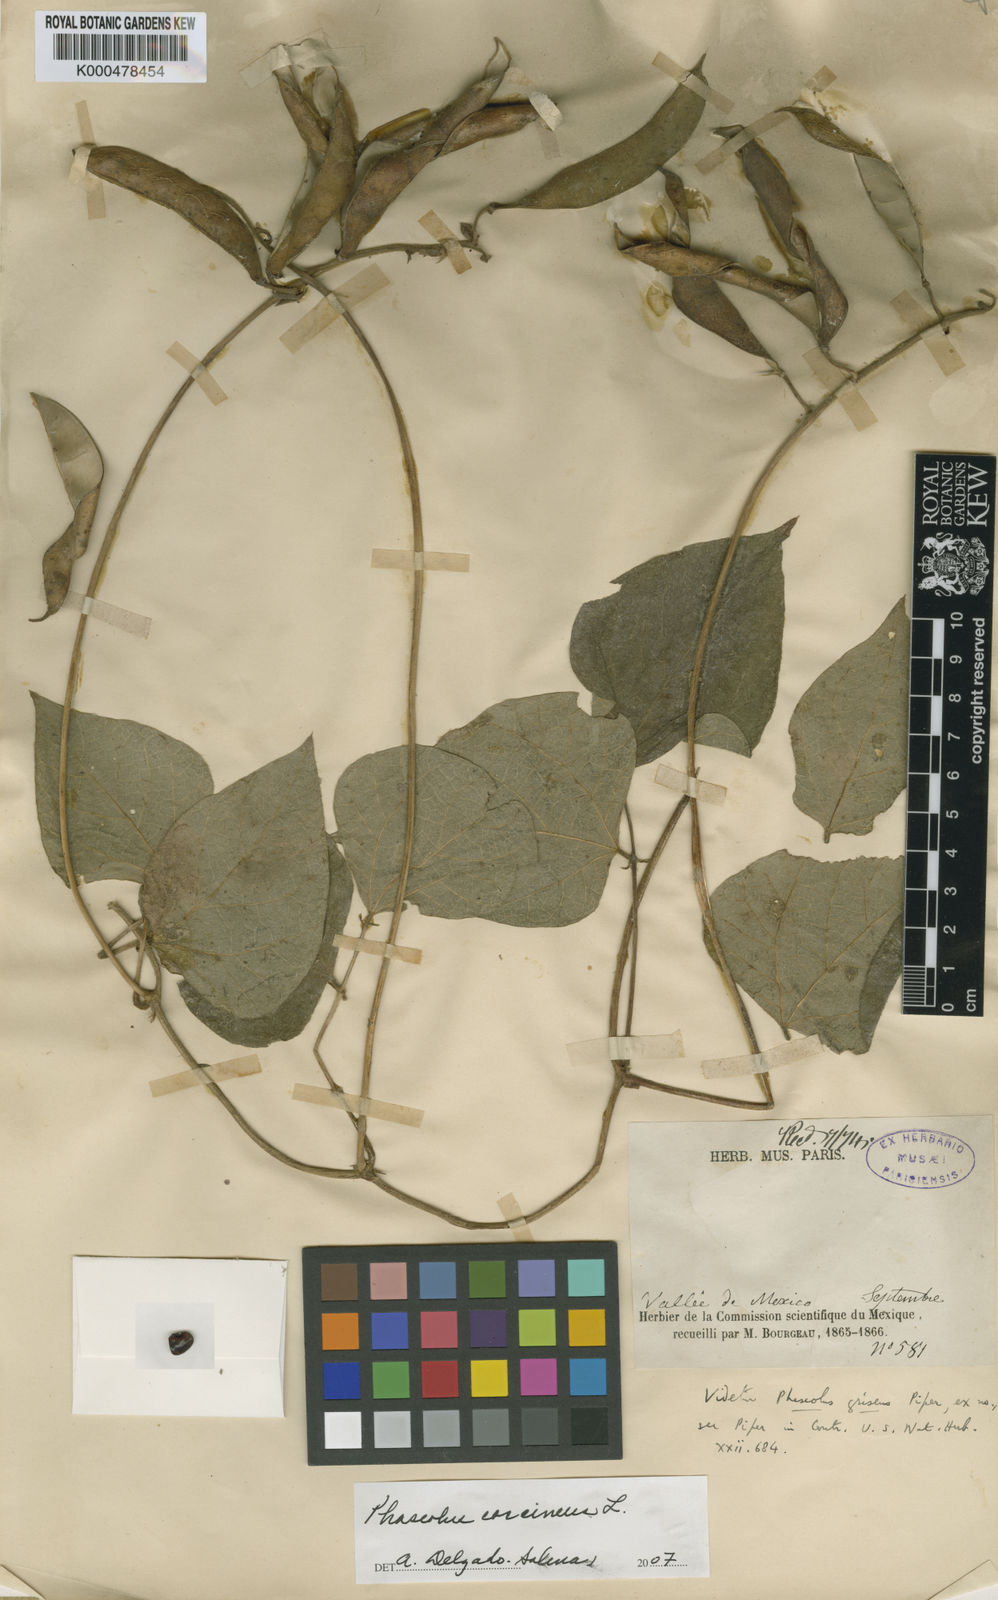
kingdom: Plantae
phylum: Tracheophyta
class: Magnoliopsida
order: Fabales
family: Fabaceae
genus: Phaseolus
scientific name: Phaseolus coccineus
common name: Runner bean
